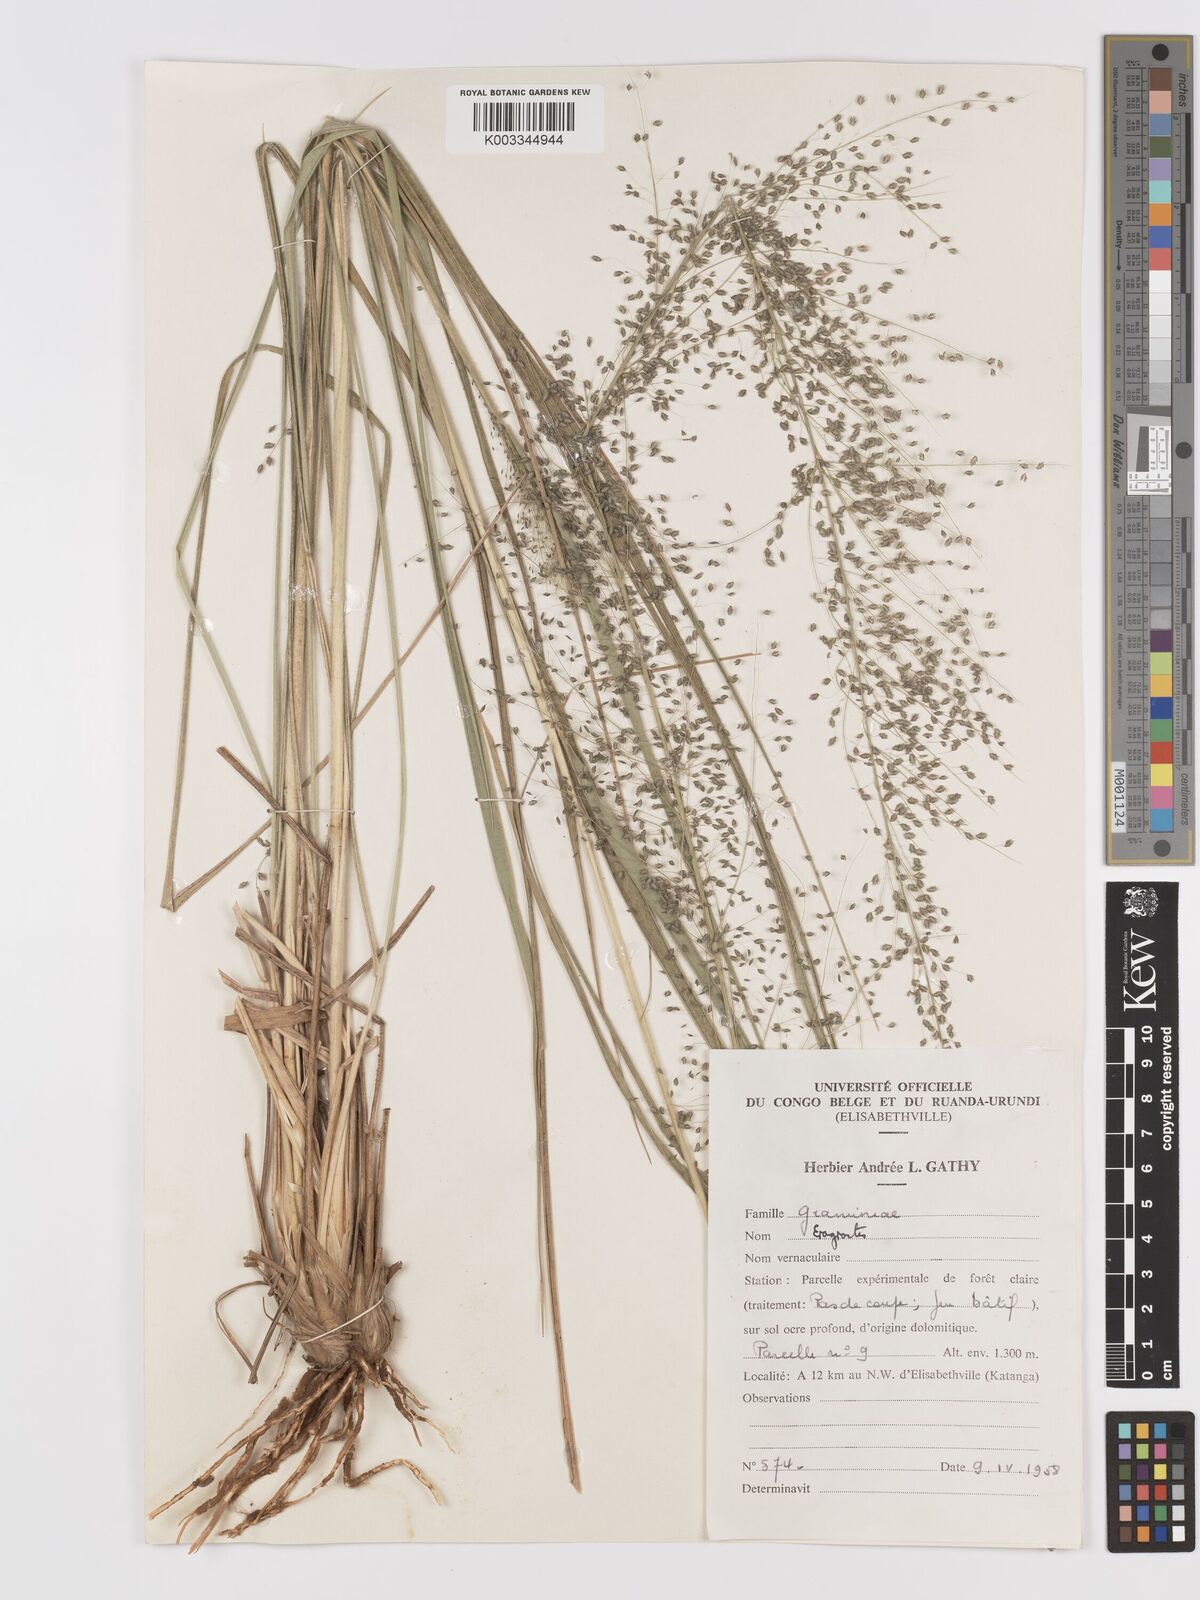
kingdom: Plantae
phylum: Tracheophyta
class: Liliopsida
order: Poales
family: Poaceae
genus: Eragrostis
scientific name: Eragrostis mollior
